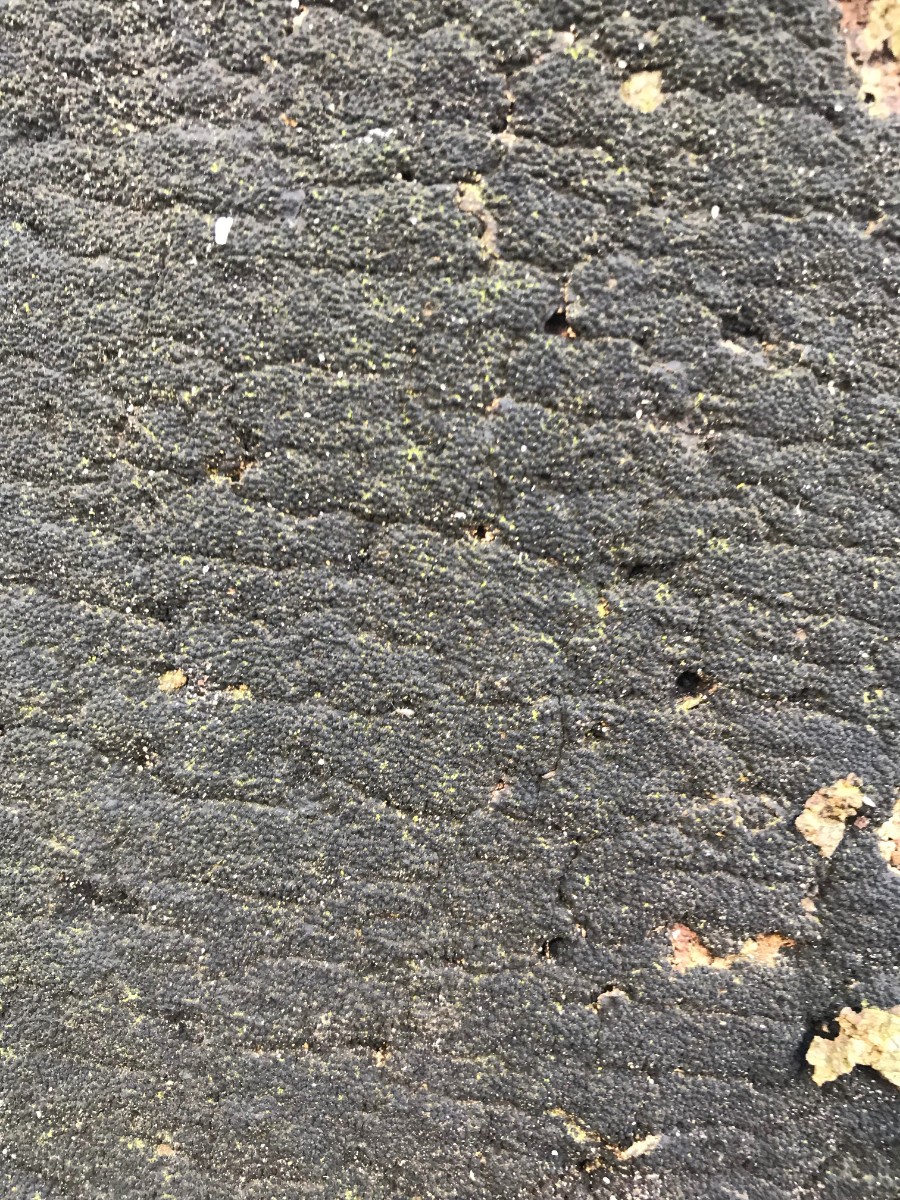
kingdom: Fungi
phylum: Ascomycota
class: Sordariomycetes
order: Xylariales
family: Diatrypaceae
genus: Eutypa
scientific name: Eutypa spinosa
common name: grov kulskorpe
